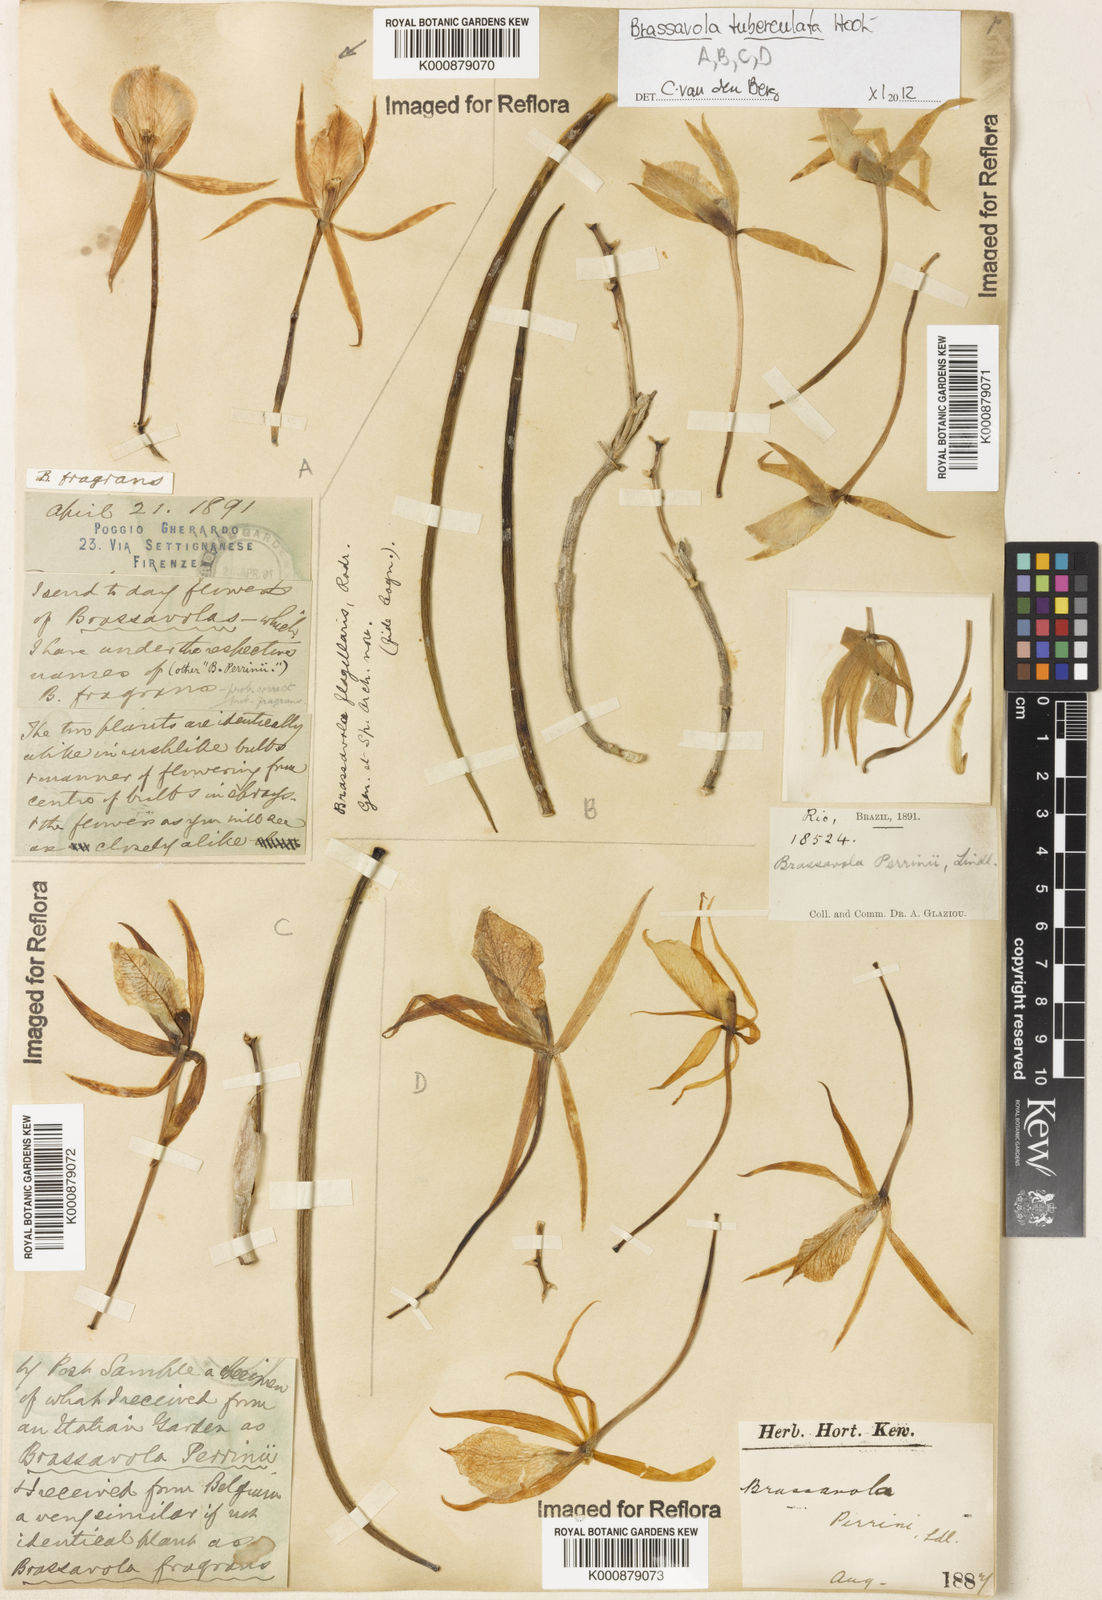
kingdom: Plantae
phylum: Tracheophyta
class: Liliopsida
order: Asparagales
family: Orchidaceae
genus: Brassavola
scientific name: Brassavola tuberculata
